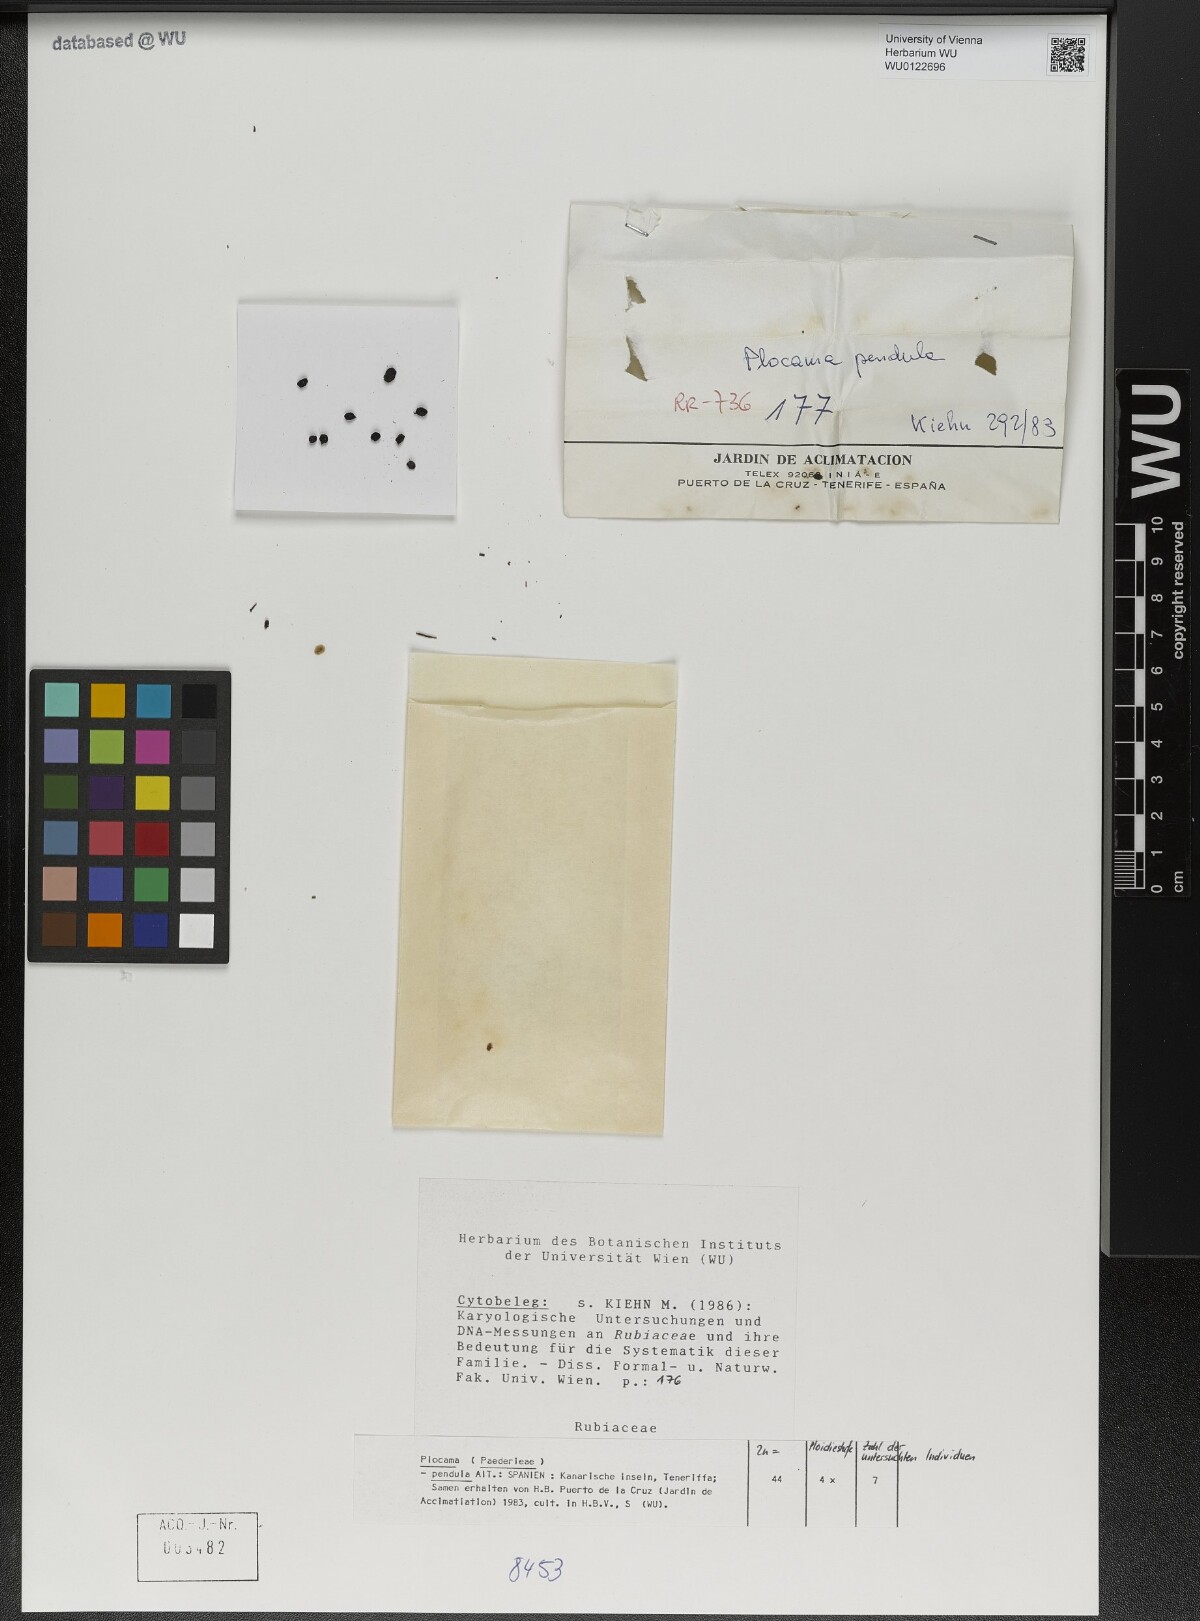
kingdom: Plantae
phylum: Tracheophyta
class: Magnoliopsida
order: Gentianales
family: Rubiaceae
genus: Plocama
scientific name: Plocama pendula
